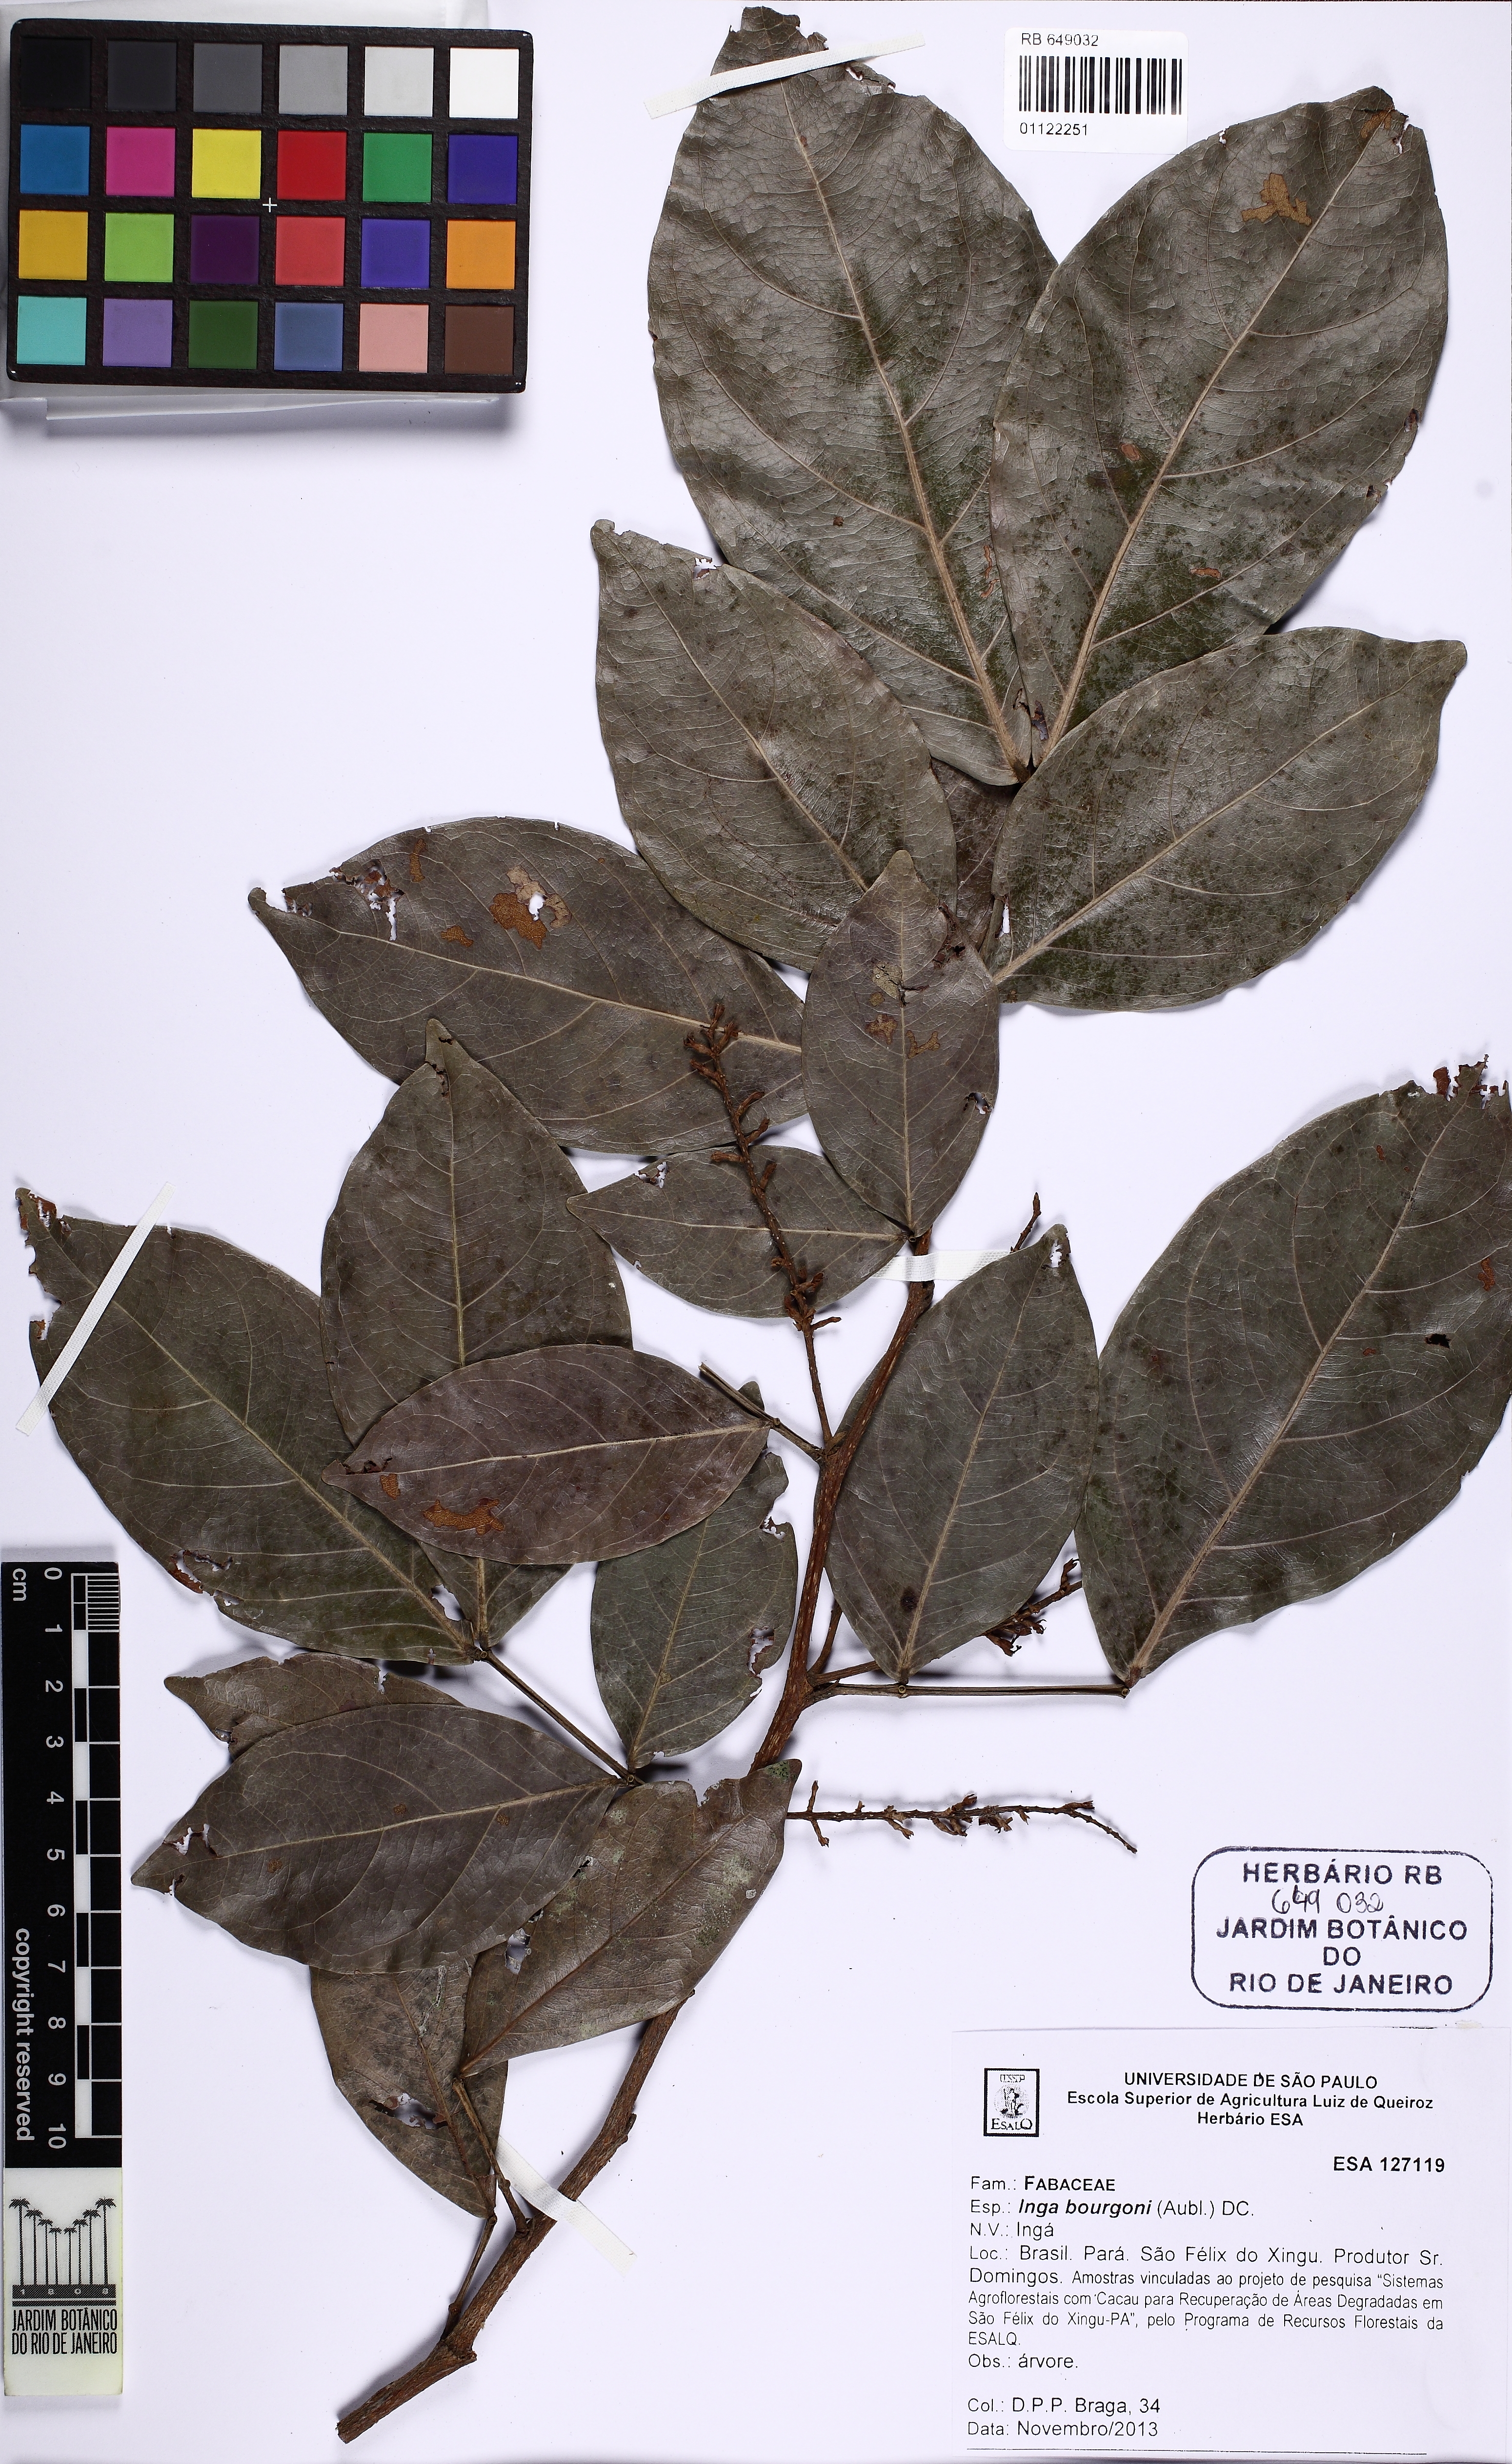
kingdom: Plantae
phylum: Tracheophyta
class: Magnoliopsida
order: Fabales
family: Fabaceae
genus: Inga
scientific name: Inga bourgoni
